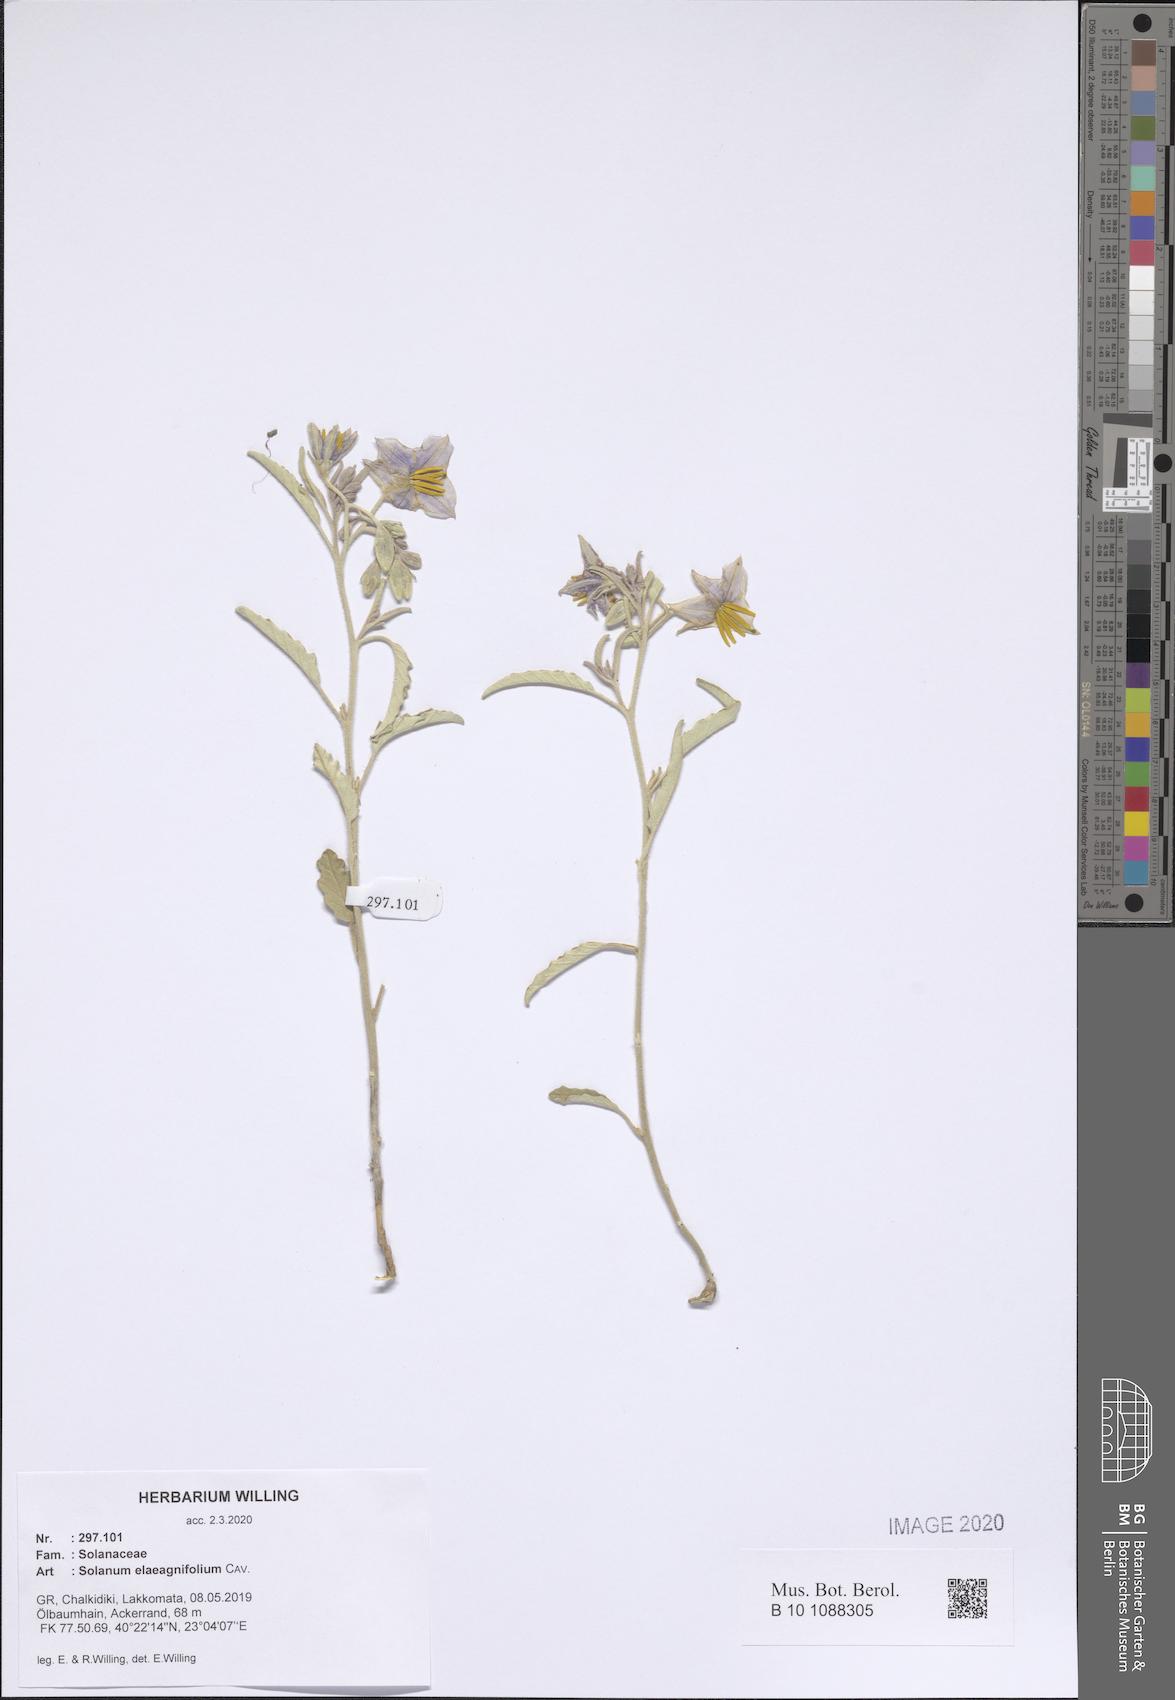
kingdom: Plantae
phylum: Tracheophyta
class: Magnoliopsida
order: Solanales
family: Solanaceae
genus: Solanum
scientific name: Solanum elaeagnifolium
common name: Silverleaf nightshade
